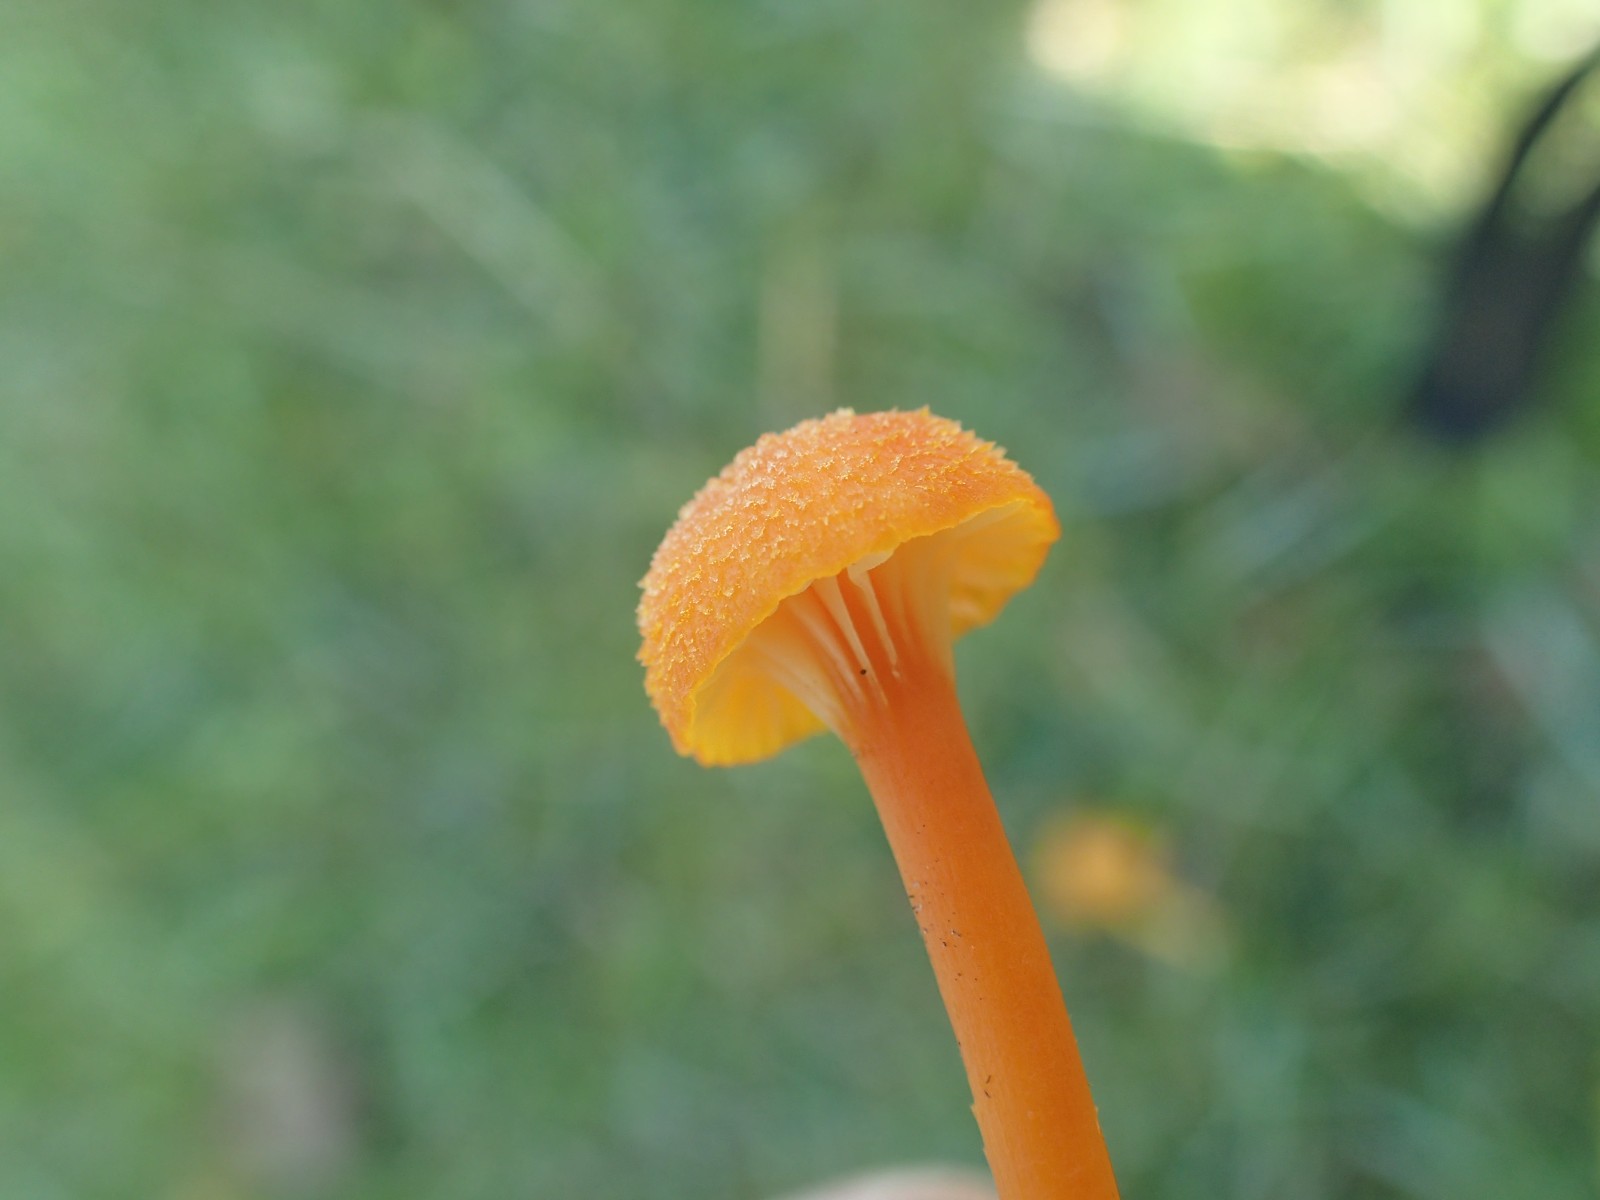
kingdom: Fungi
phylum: Basidiomycota
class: Agaricomycetes
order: Agaricales
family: Hygrophoraceae
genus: Hygrocybe
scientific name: Hygrocybe cantharellus
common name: kantarel-vokshat
